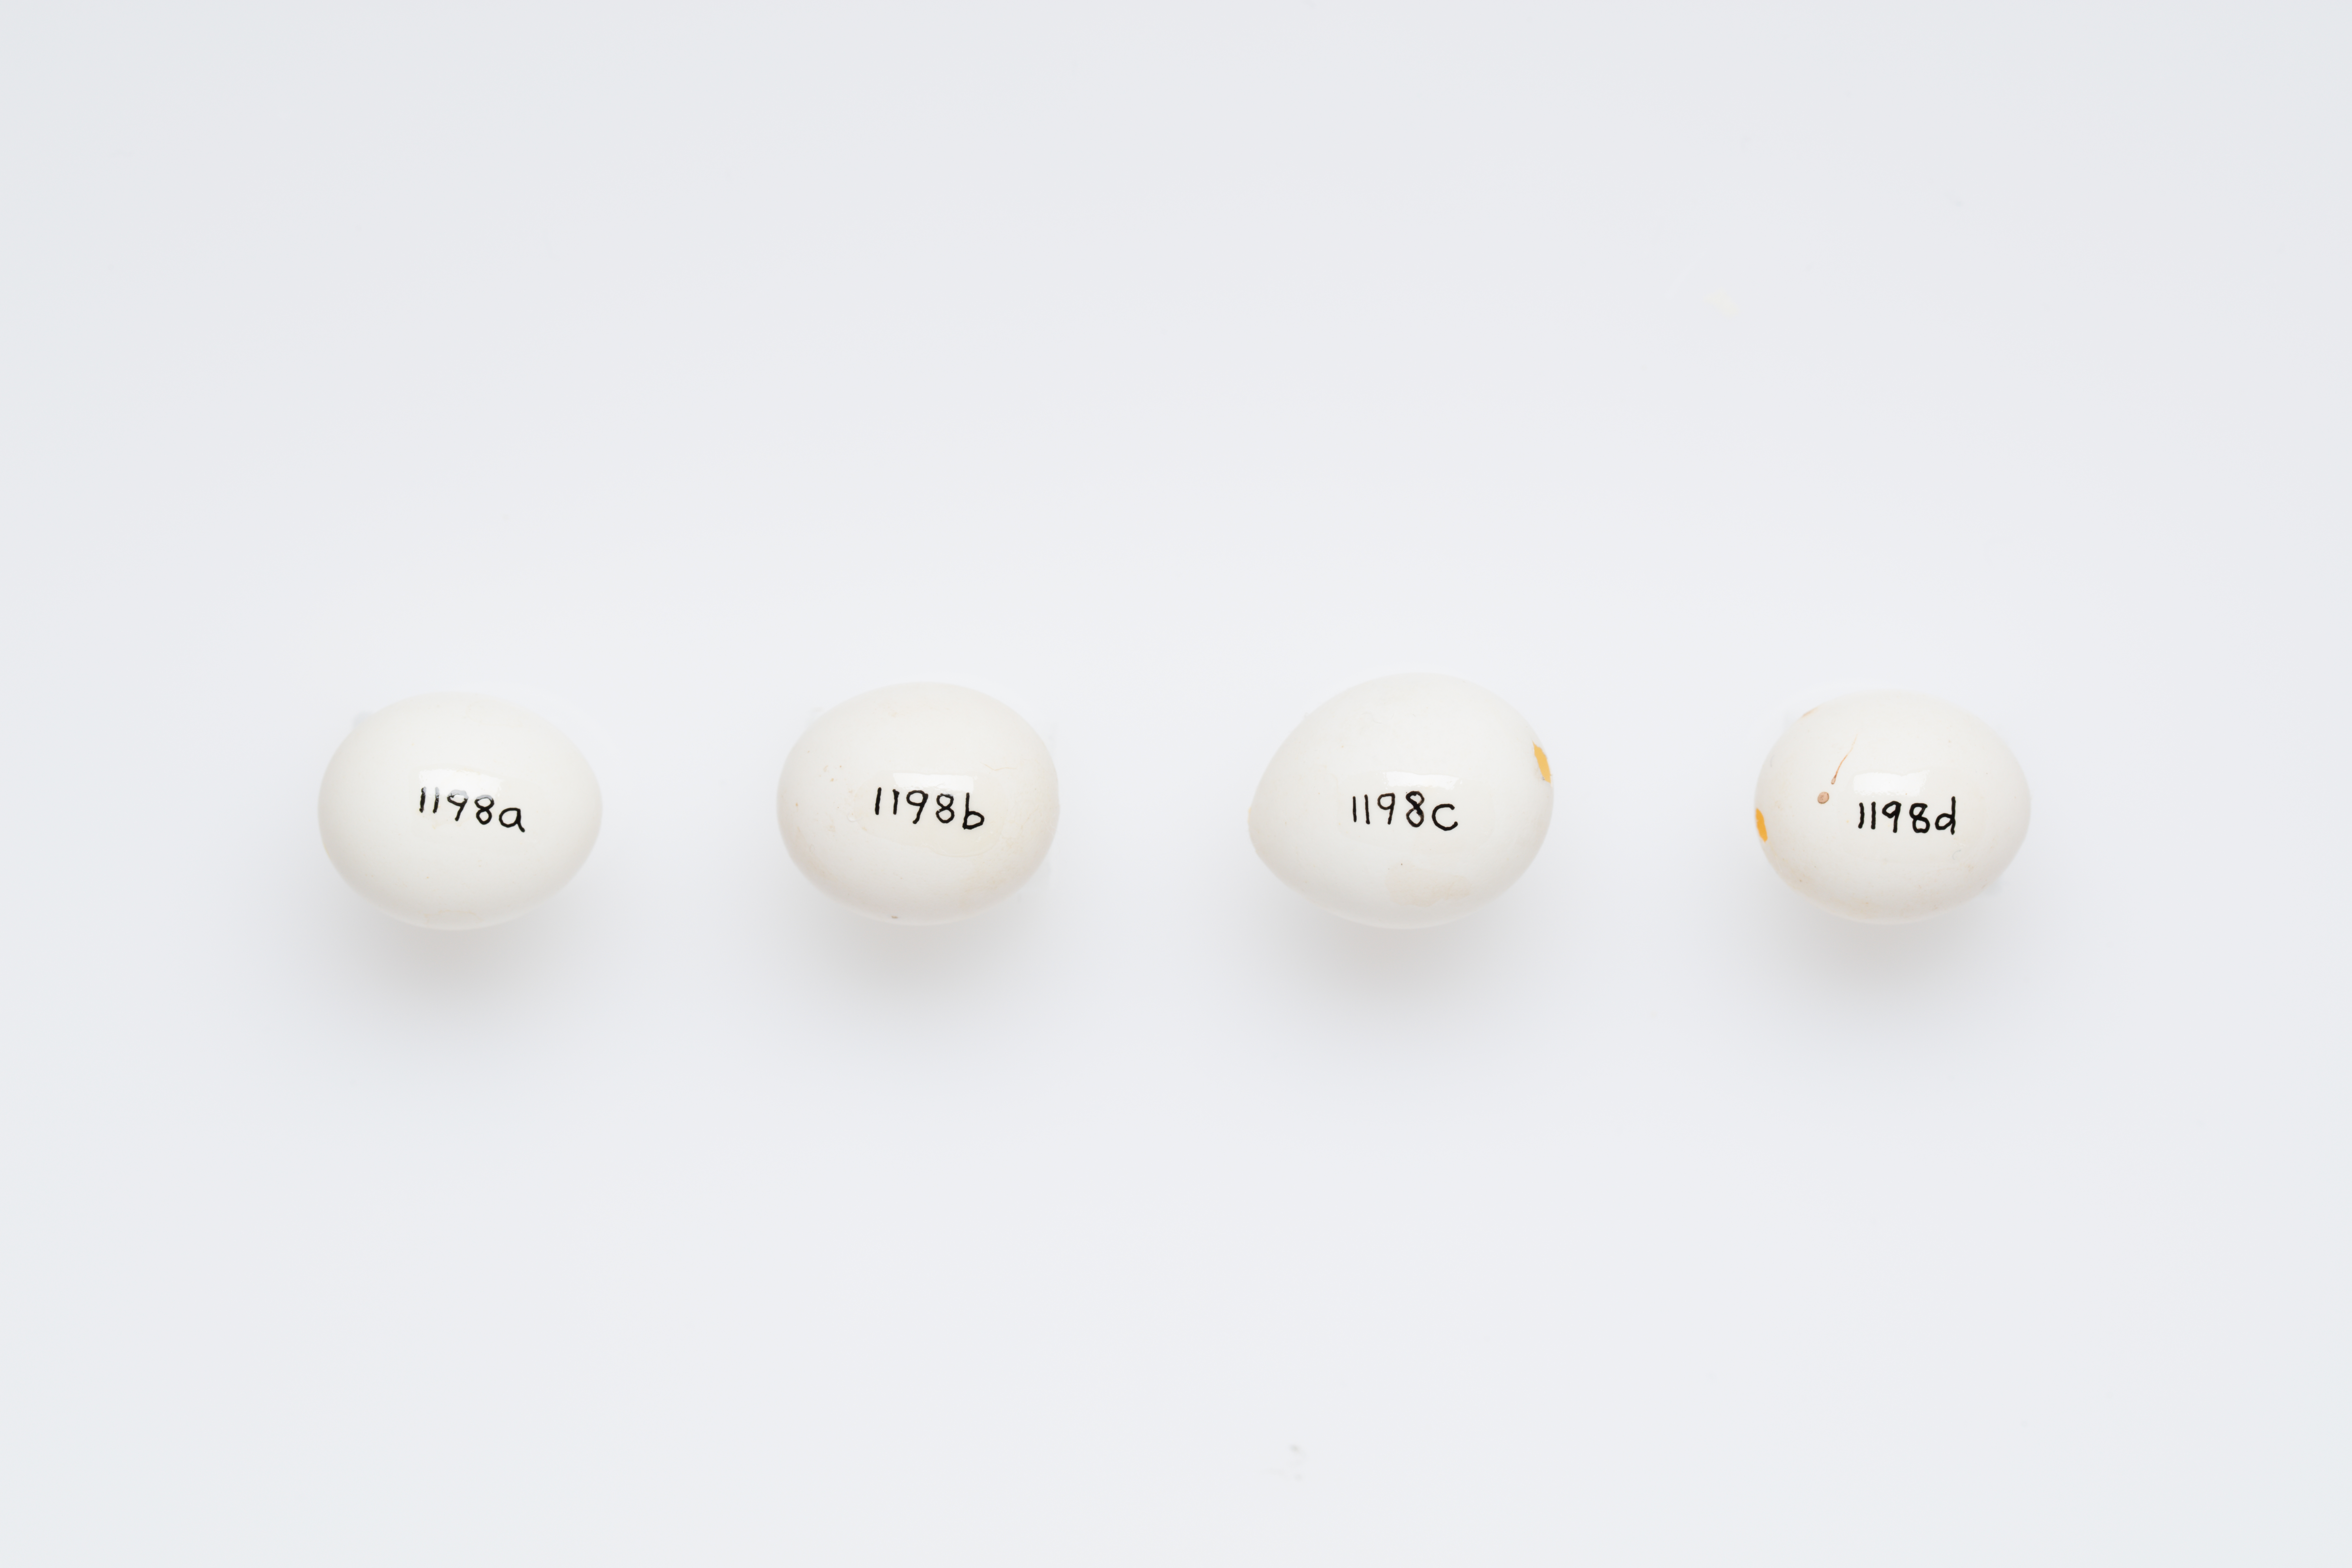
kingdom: Animalia
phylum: Chordata
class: Aves
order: Psittaciformes
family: Psittacidae
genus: Melopsittacus
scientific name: Melopsittacus undulatus
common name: Budgerigar
